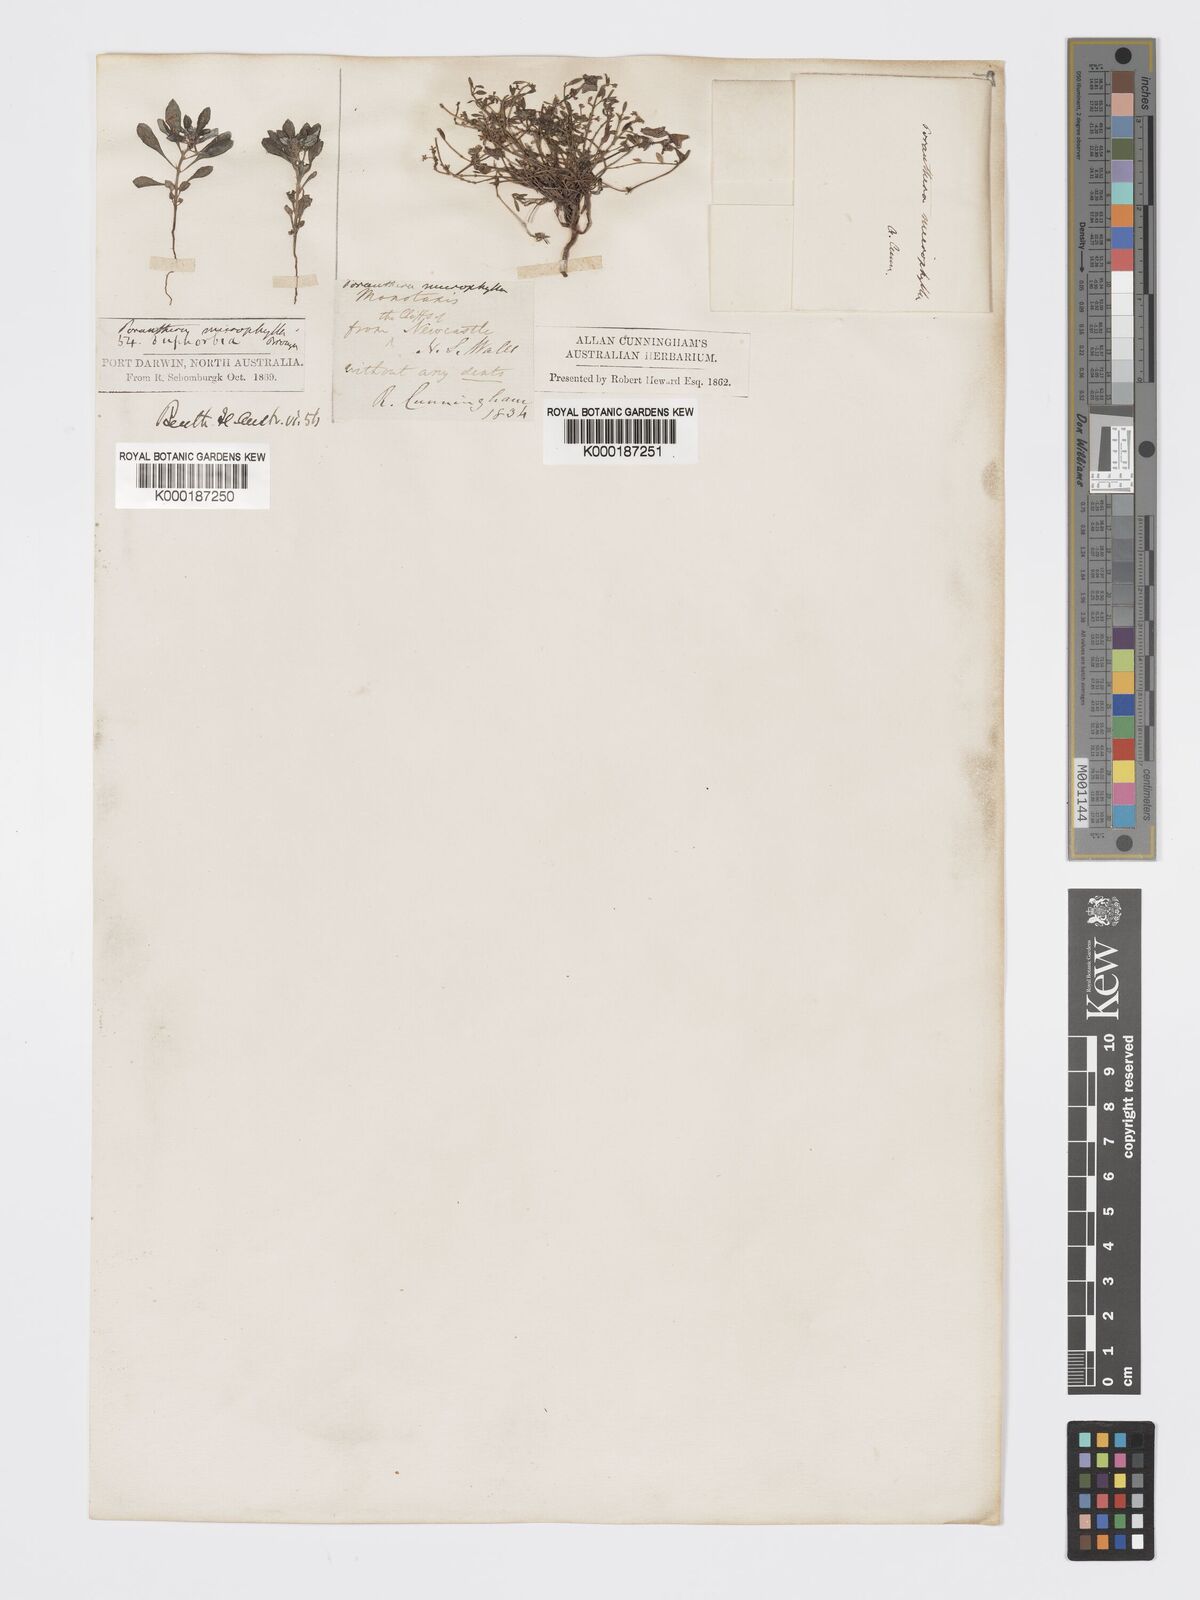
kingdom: Plantae
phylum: Tracheophyta
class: Magnoliopsida
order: Malpighiales
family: Phyllanthaceae
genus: Poranthera
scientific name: Poranthera microphylla
